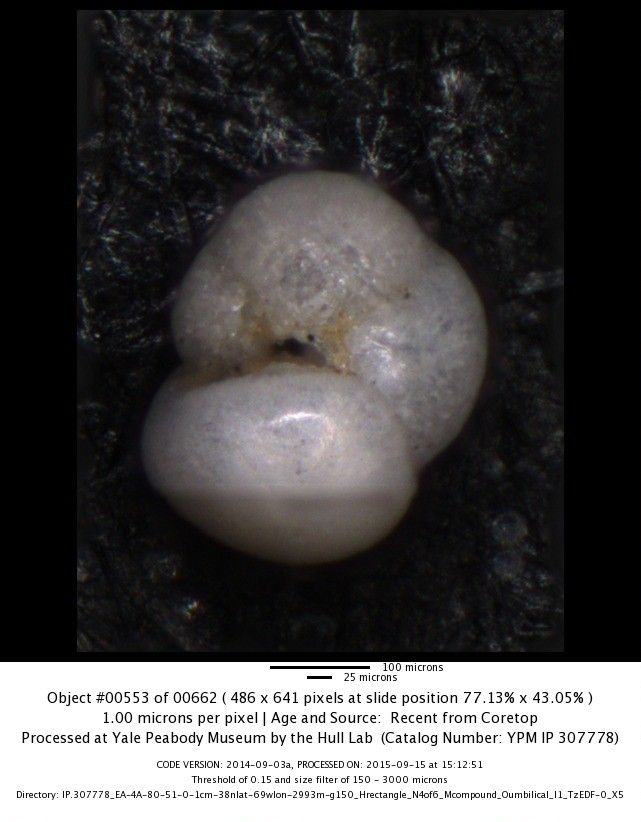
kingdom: Chromista
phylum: Foraminifera
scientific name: Foraminifera
